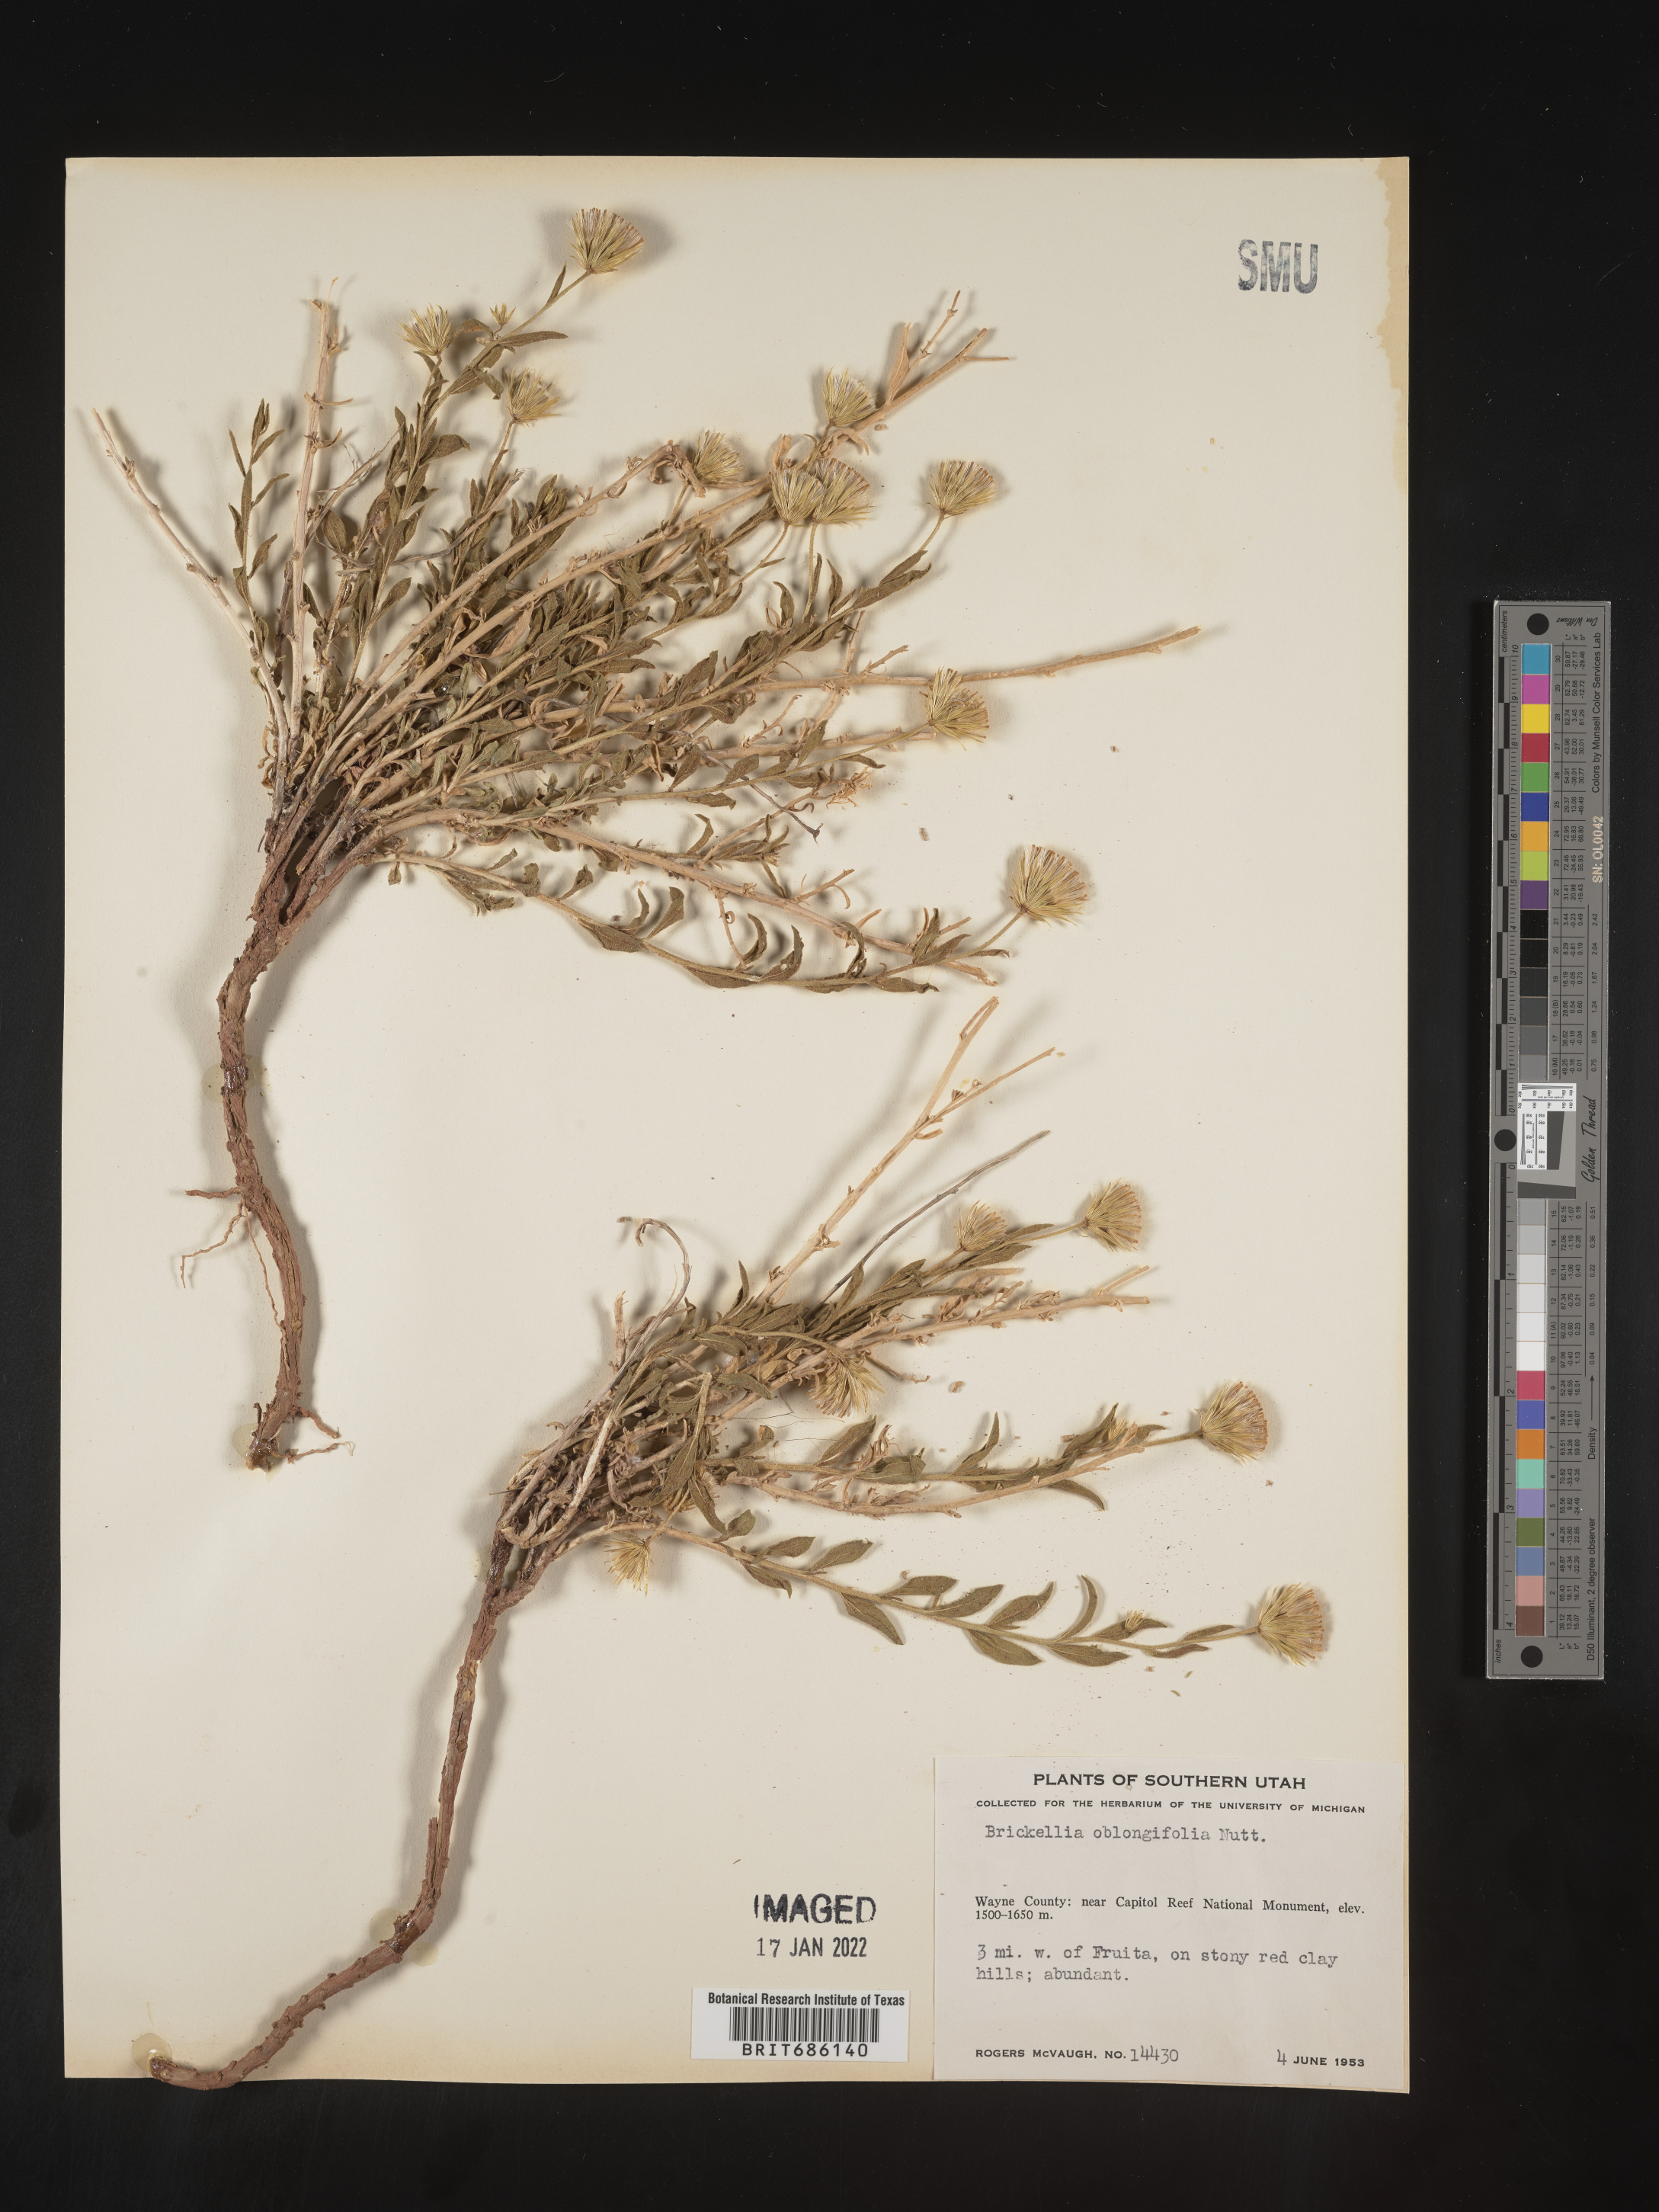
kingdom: Plantae
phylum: Tracheophyta
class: Magnoliopsida
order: Asterales
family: Asteraceae
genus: Brickellia
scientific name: Brickellia oblongifolia
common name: Mojave brickellbush
